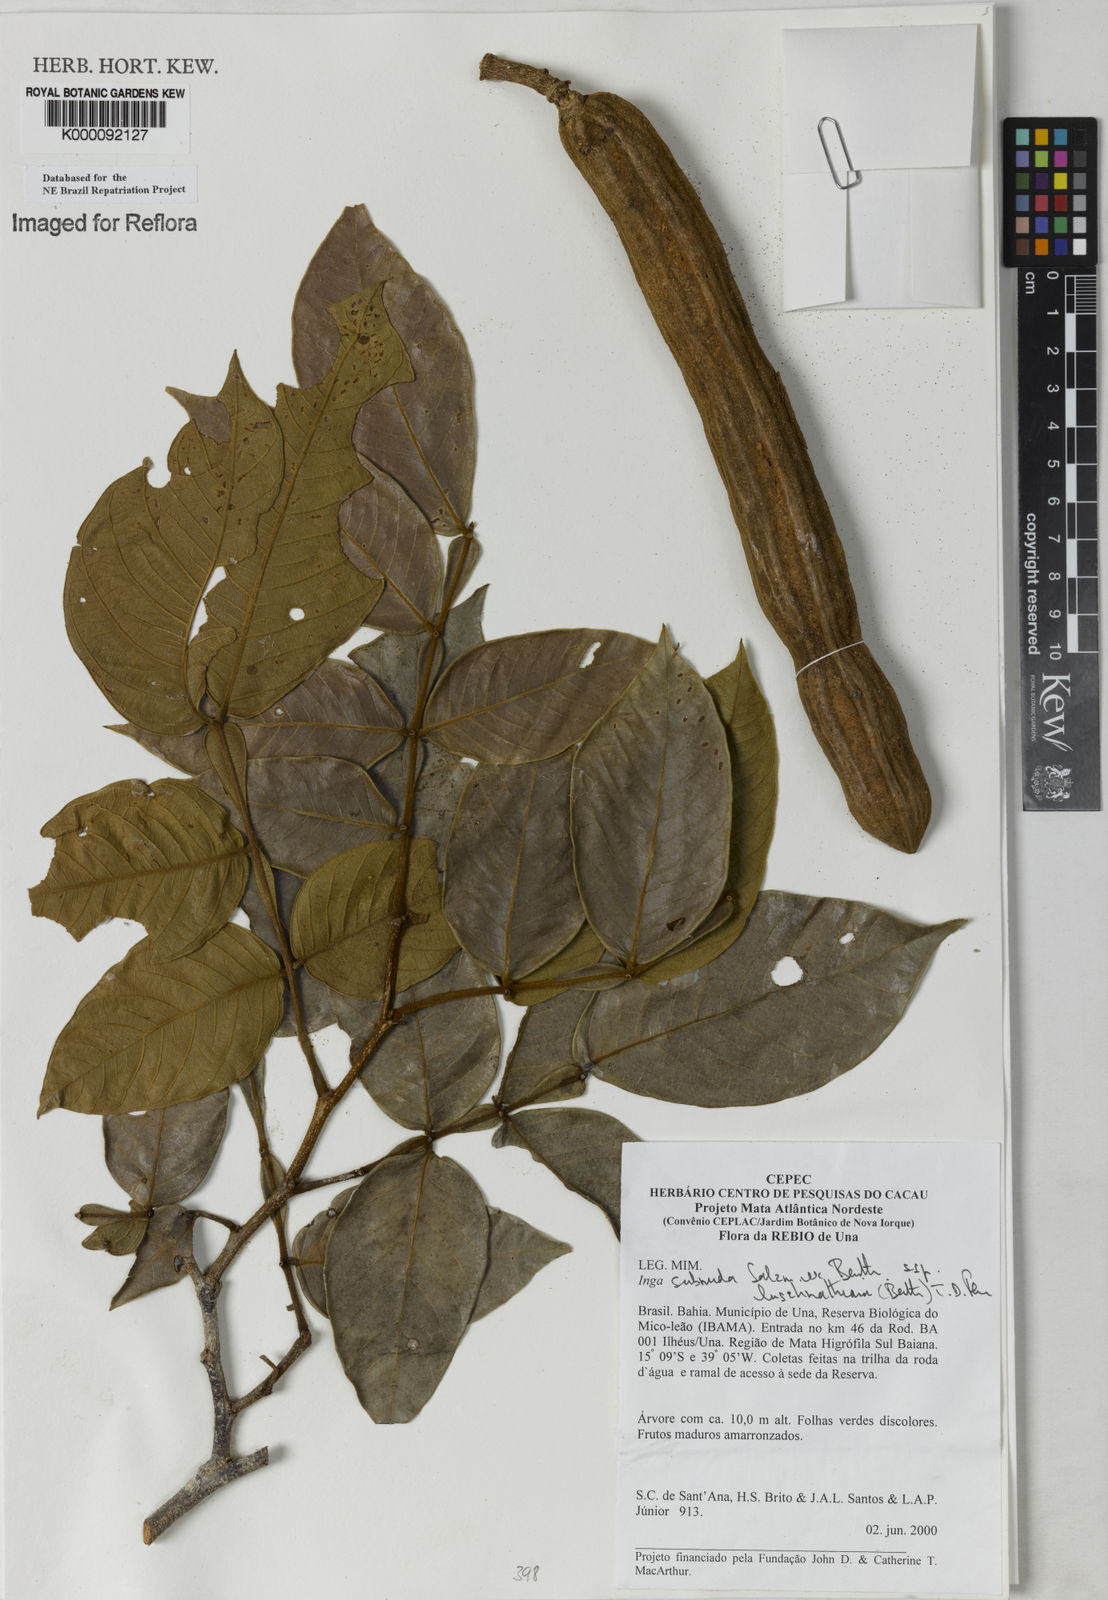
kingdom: Plantae
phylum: Tracheophyta
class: Magnoliopsida
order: Fabales
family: Fabaceae
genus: Inga
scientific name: Inga subnuda
